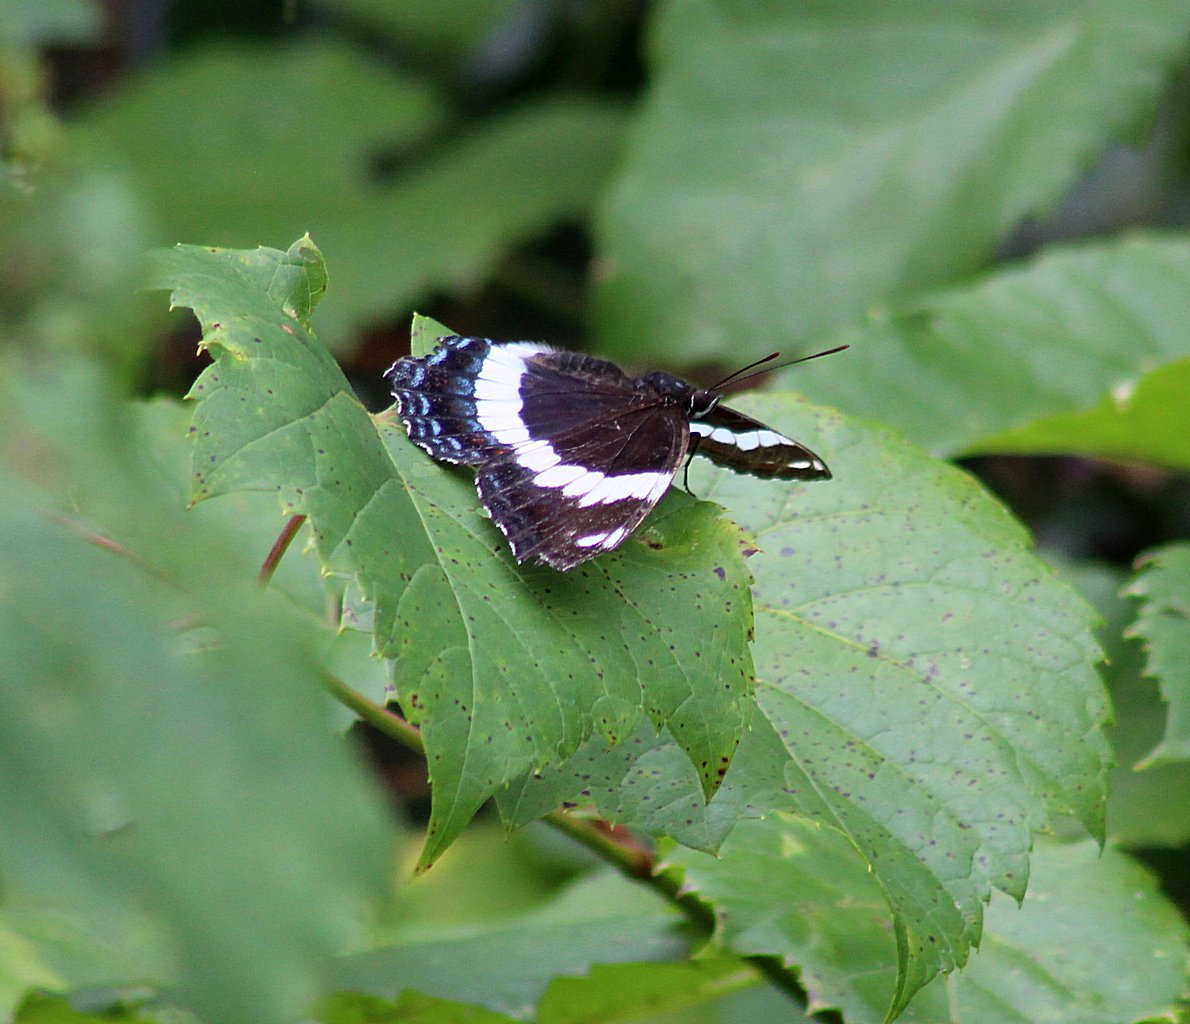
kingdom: Animalia
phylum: Arthropoda
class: Insecta
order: Lepidoptera
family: Nymphalidae
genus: Limenitis
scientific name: Limenitis arthemis
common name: Red-spotted Admiral
